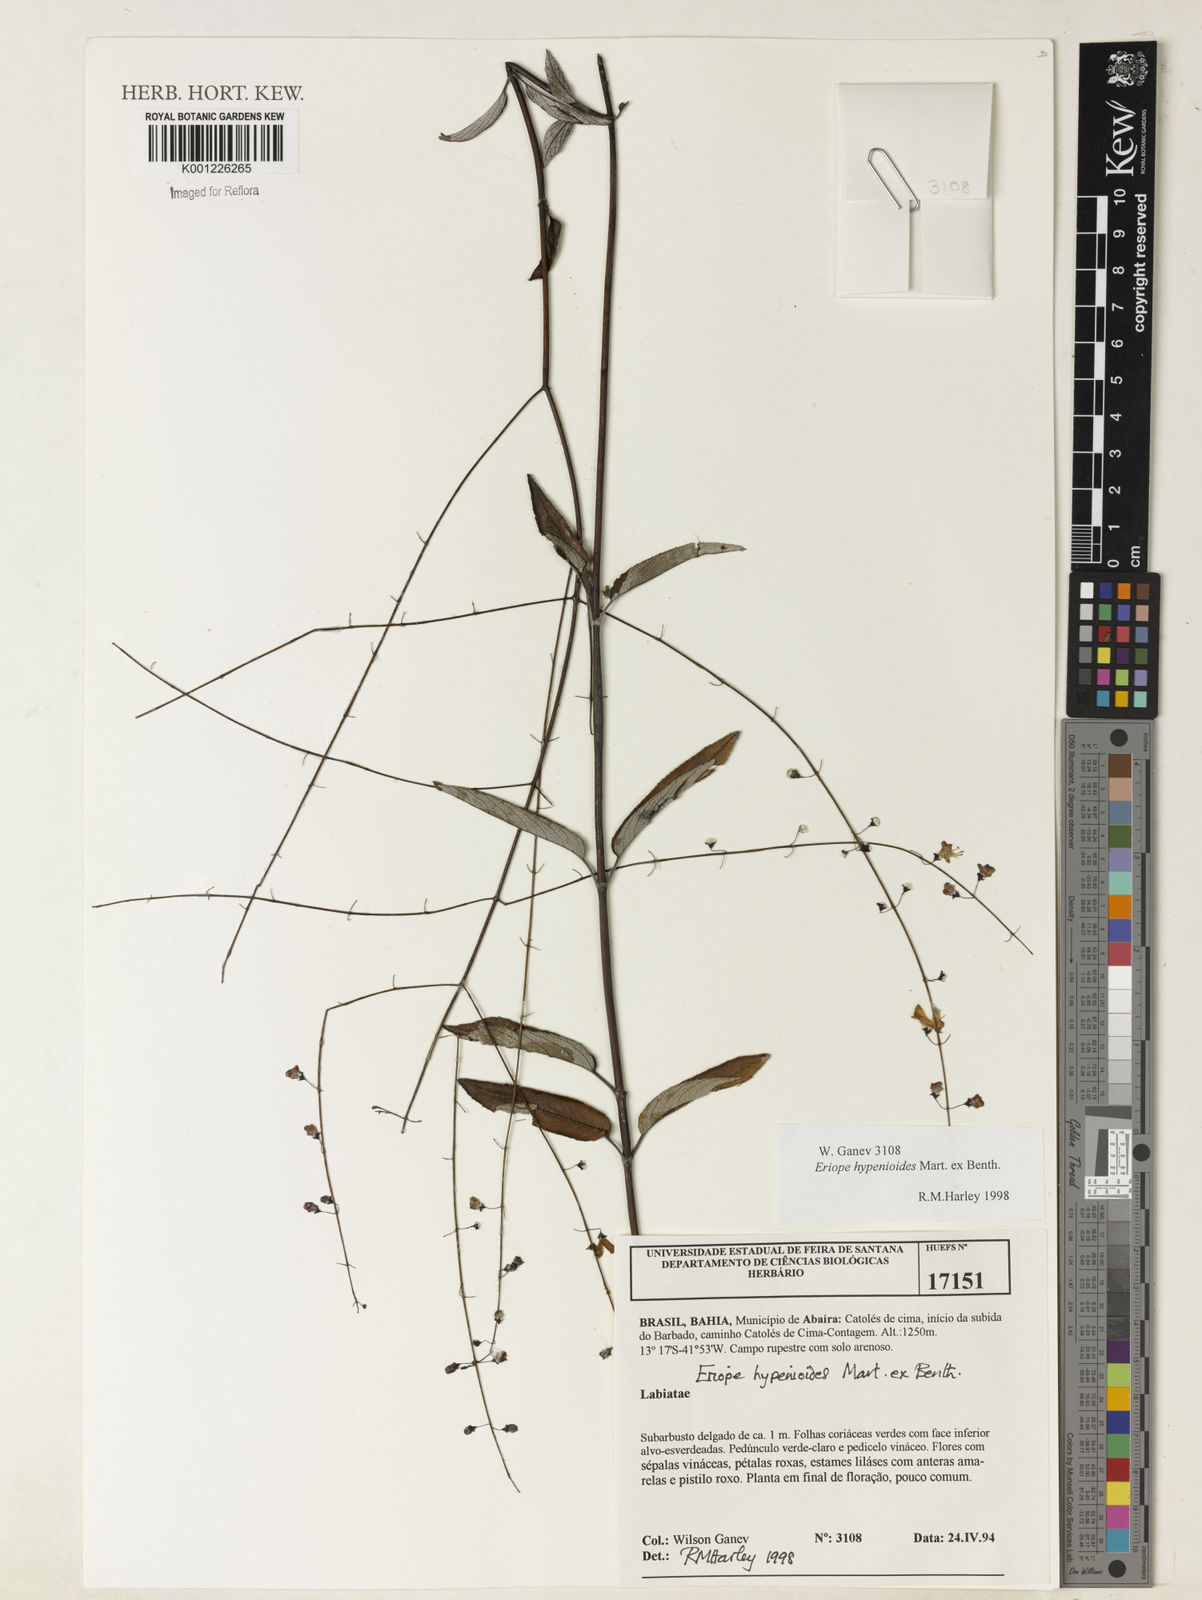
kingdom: Plantae
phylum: Tracheophyta
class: Magnoliopsida
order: Lamiales
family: Lamiaceae
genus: Eriope
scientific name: Eriope hypenioides
